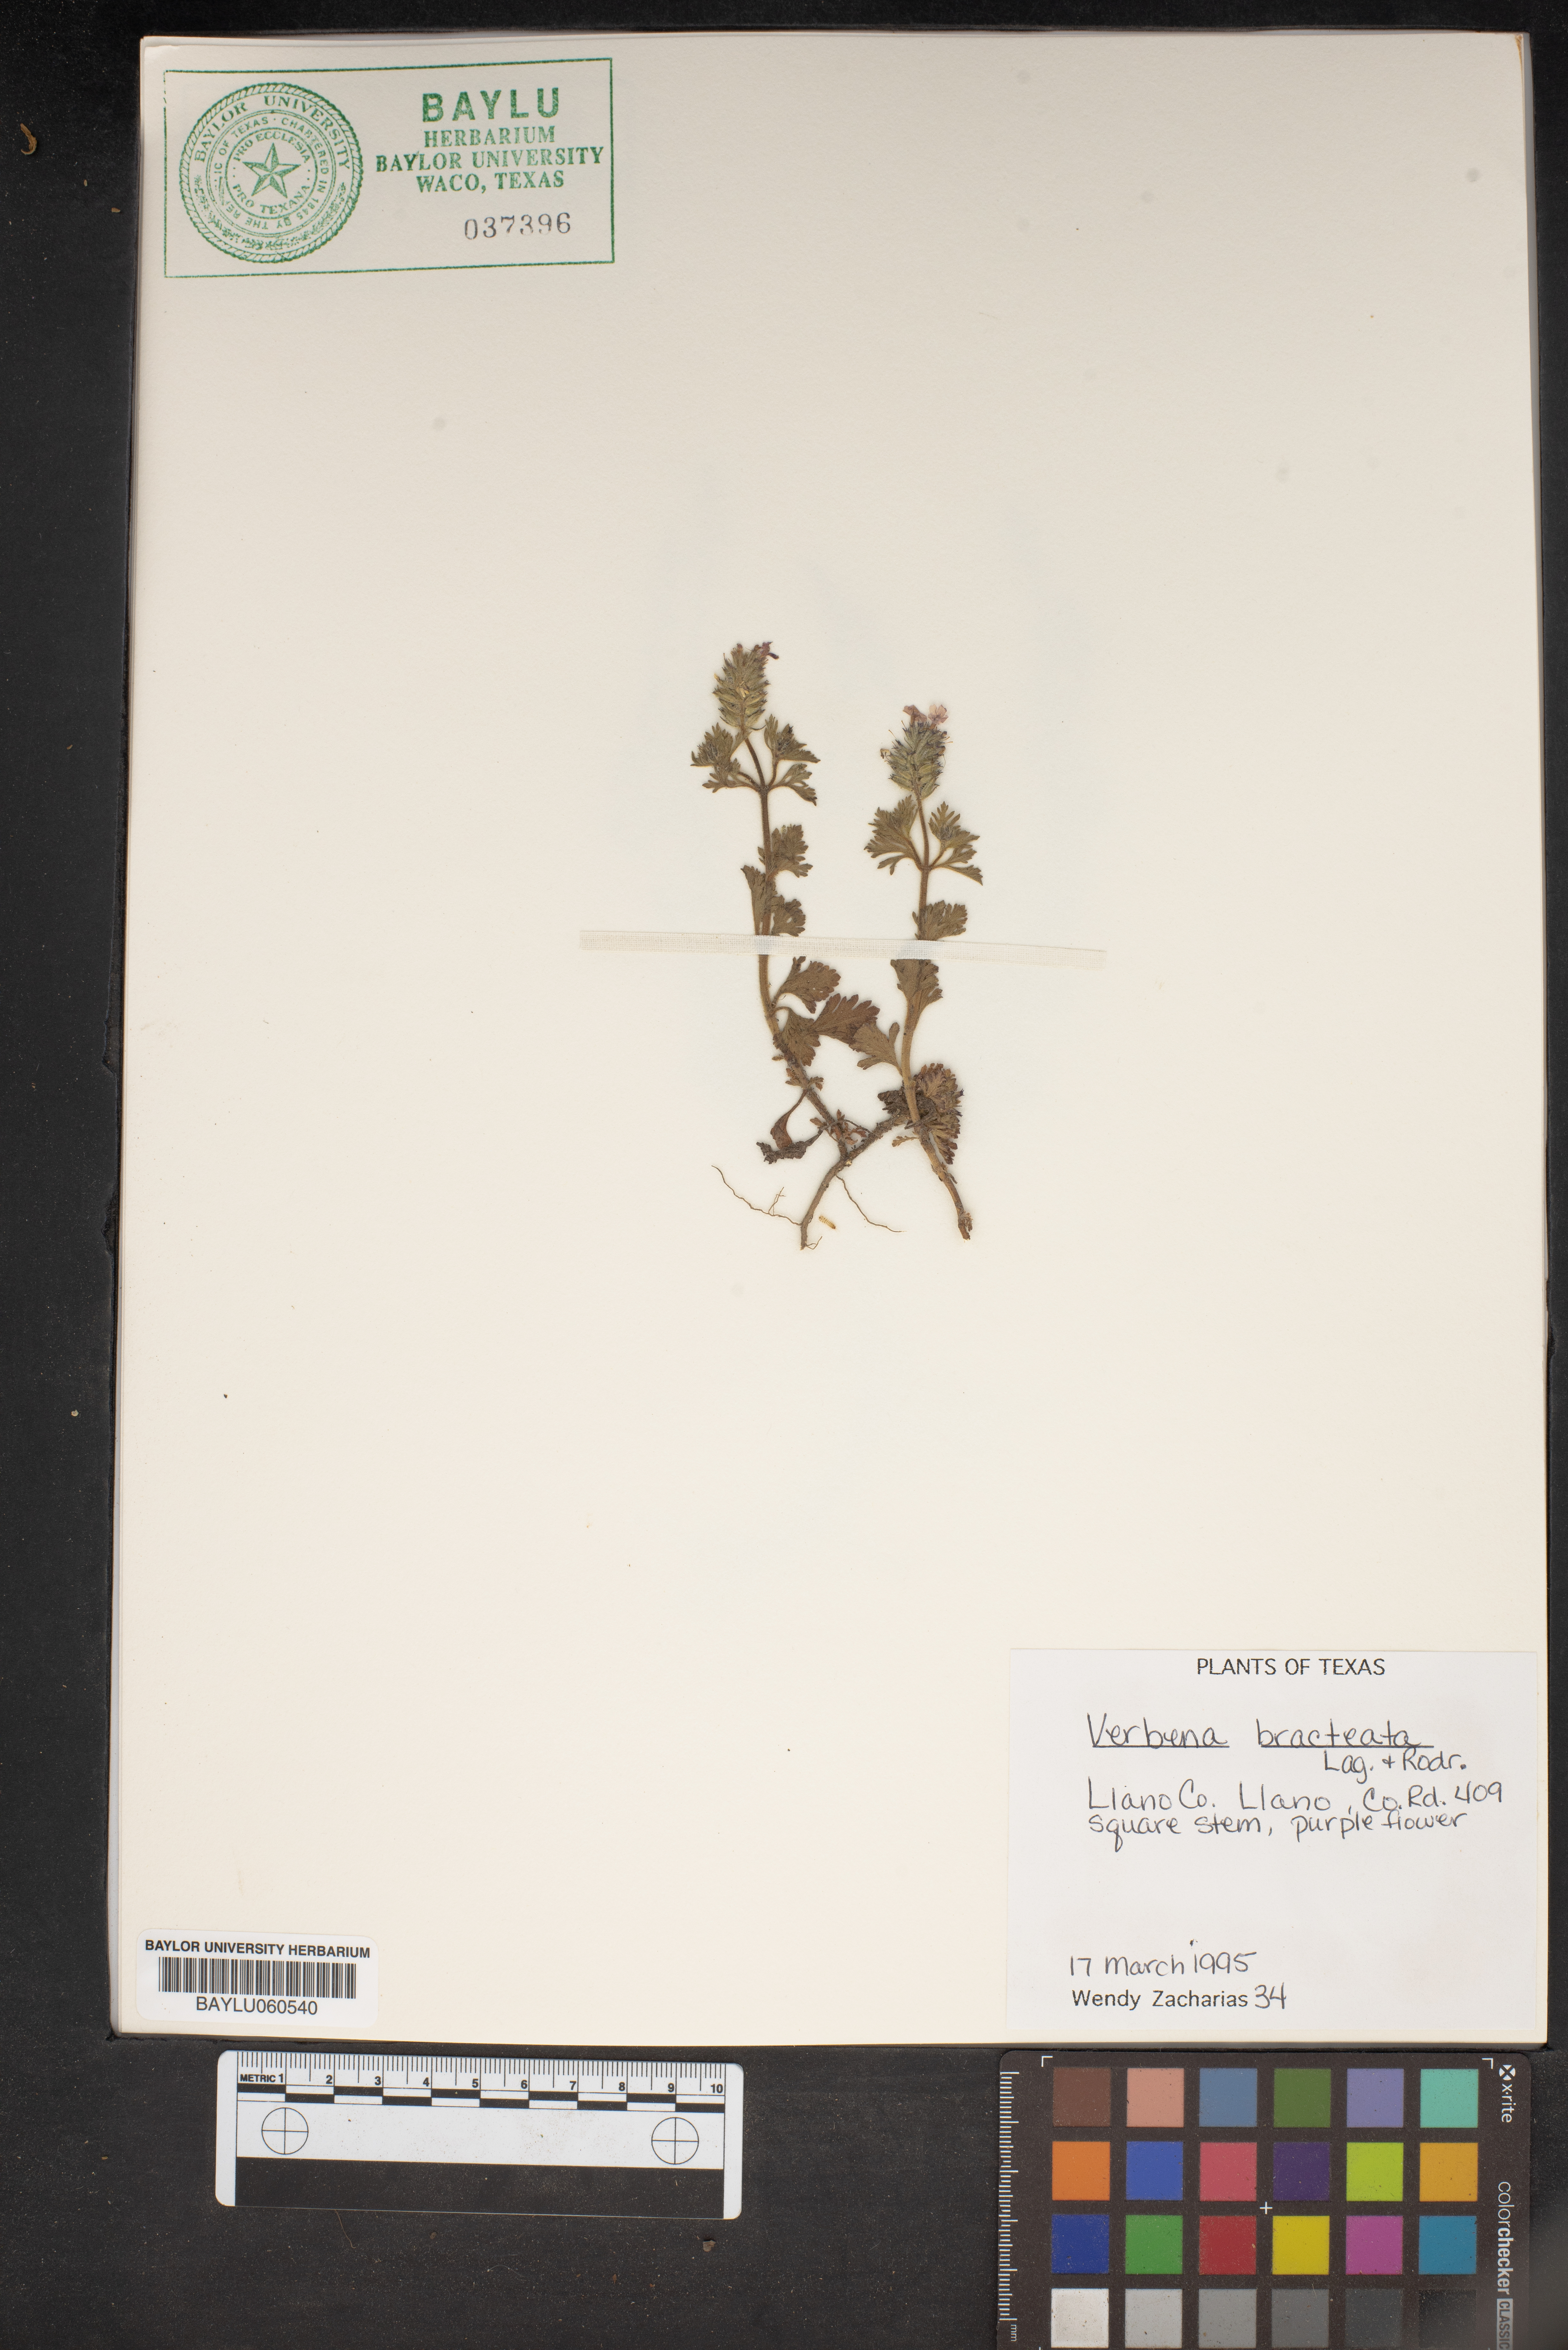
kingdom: Plantae
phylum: Tracheophyta
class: Magnoliopsida
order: Lamiales
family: Verbenaceae
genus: Verbena
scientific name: Verbena bracteata
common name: Bracted vervain
